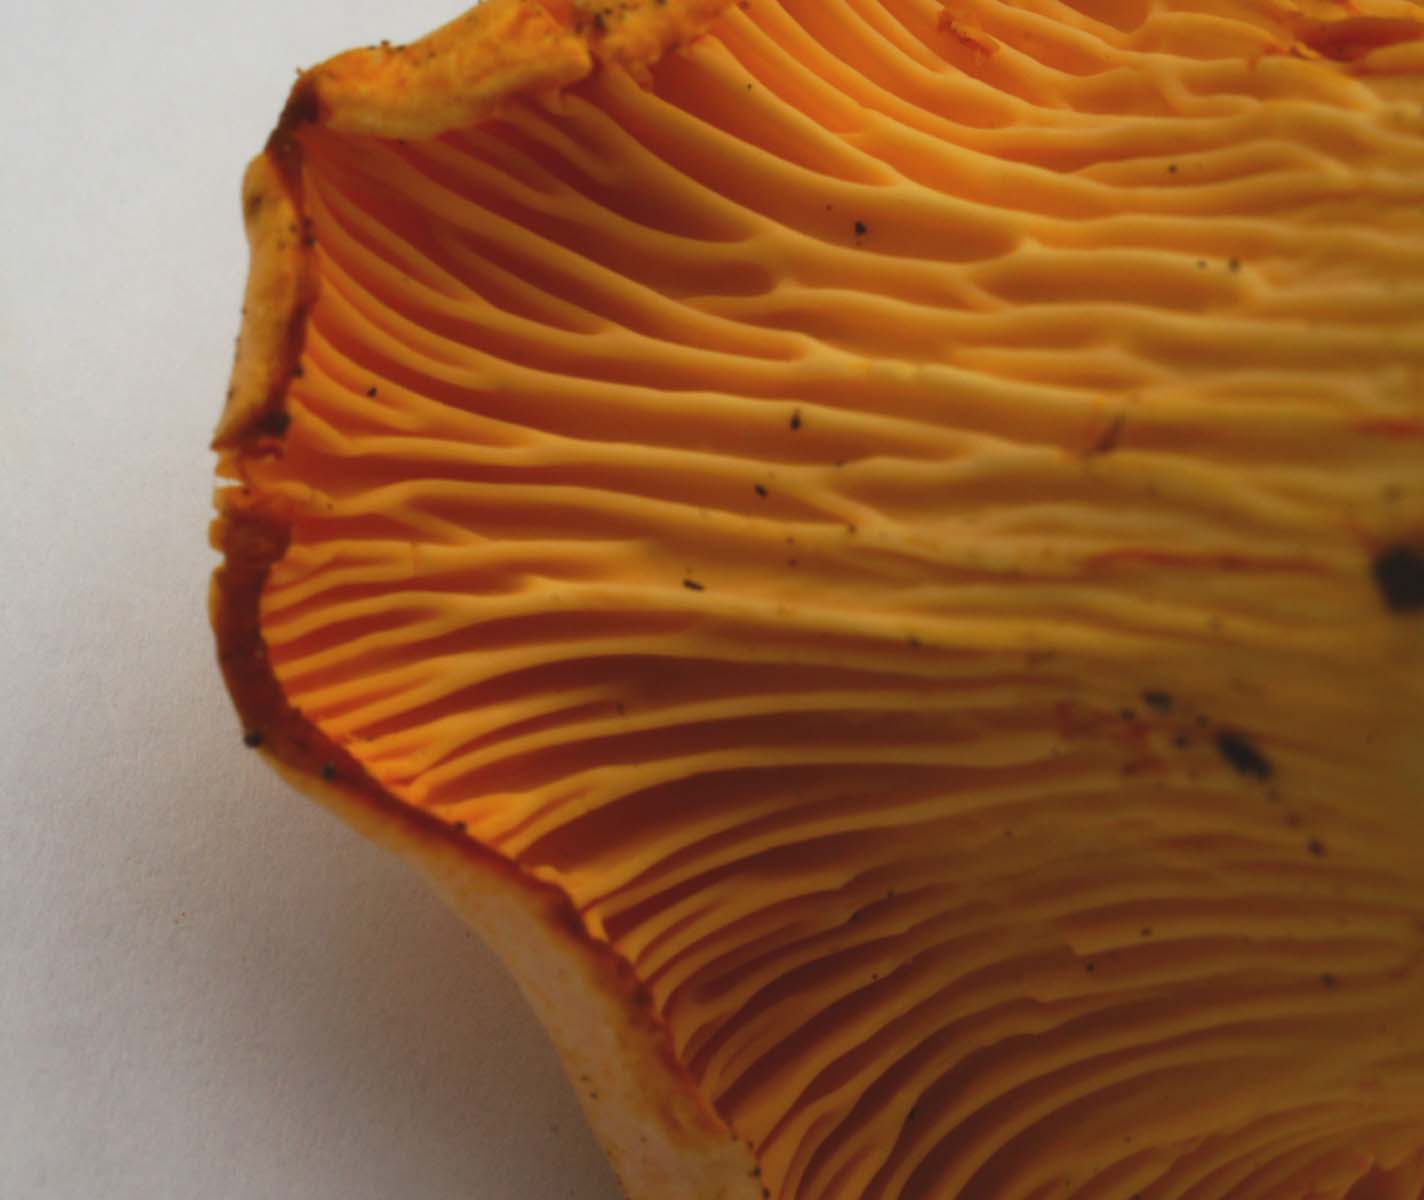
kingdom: Fungi
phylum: Basidiomycota
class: Agaricomycetes
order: Cantharellales
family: Hydnaceae
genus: Cantharellus
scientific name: Cantharellus pallens
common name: bleg kantarel
